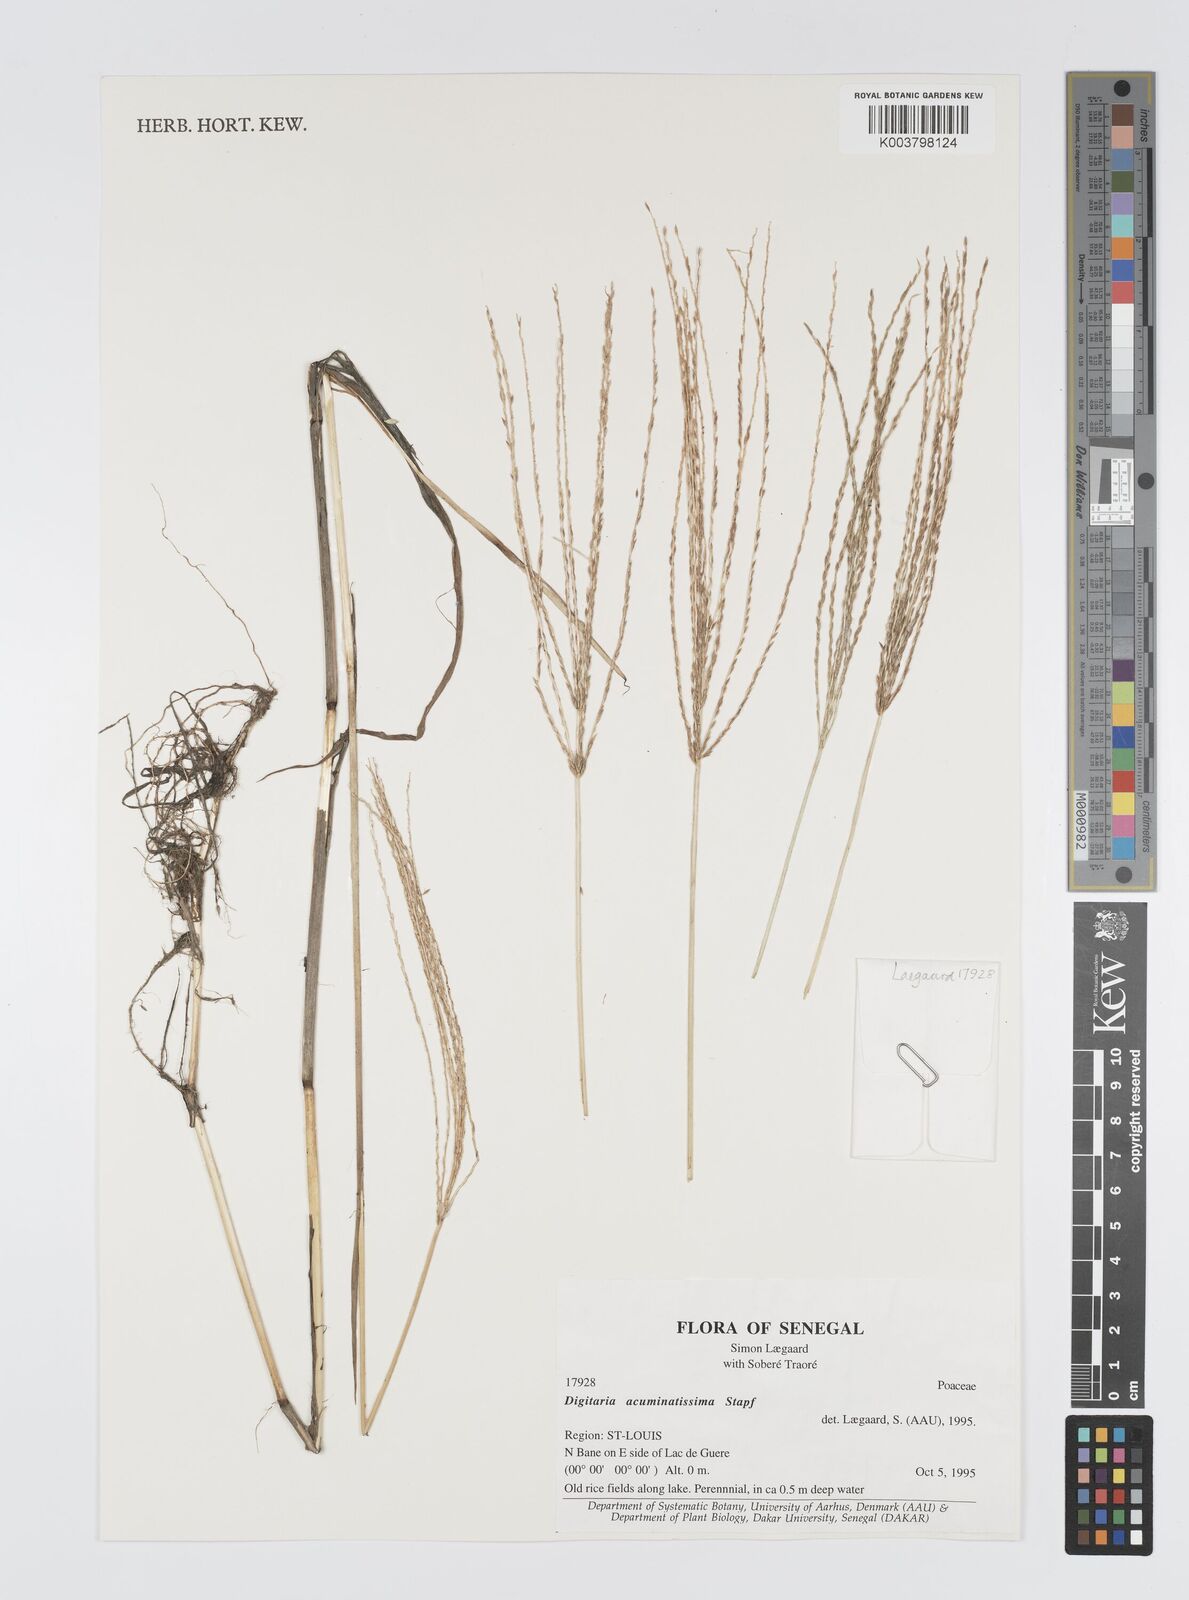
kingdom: Plantae
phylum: Tracheophyta
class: Liliopsida
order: Poales
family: Poaceae
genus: Digitaria
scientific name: Digitaria acuminatissima
